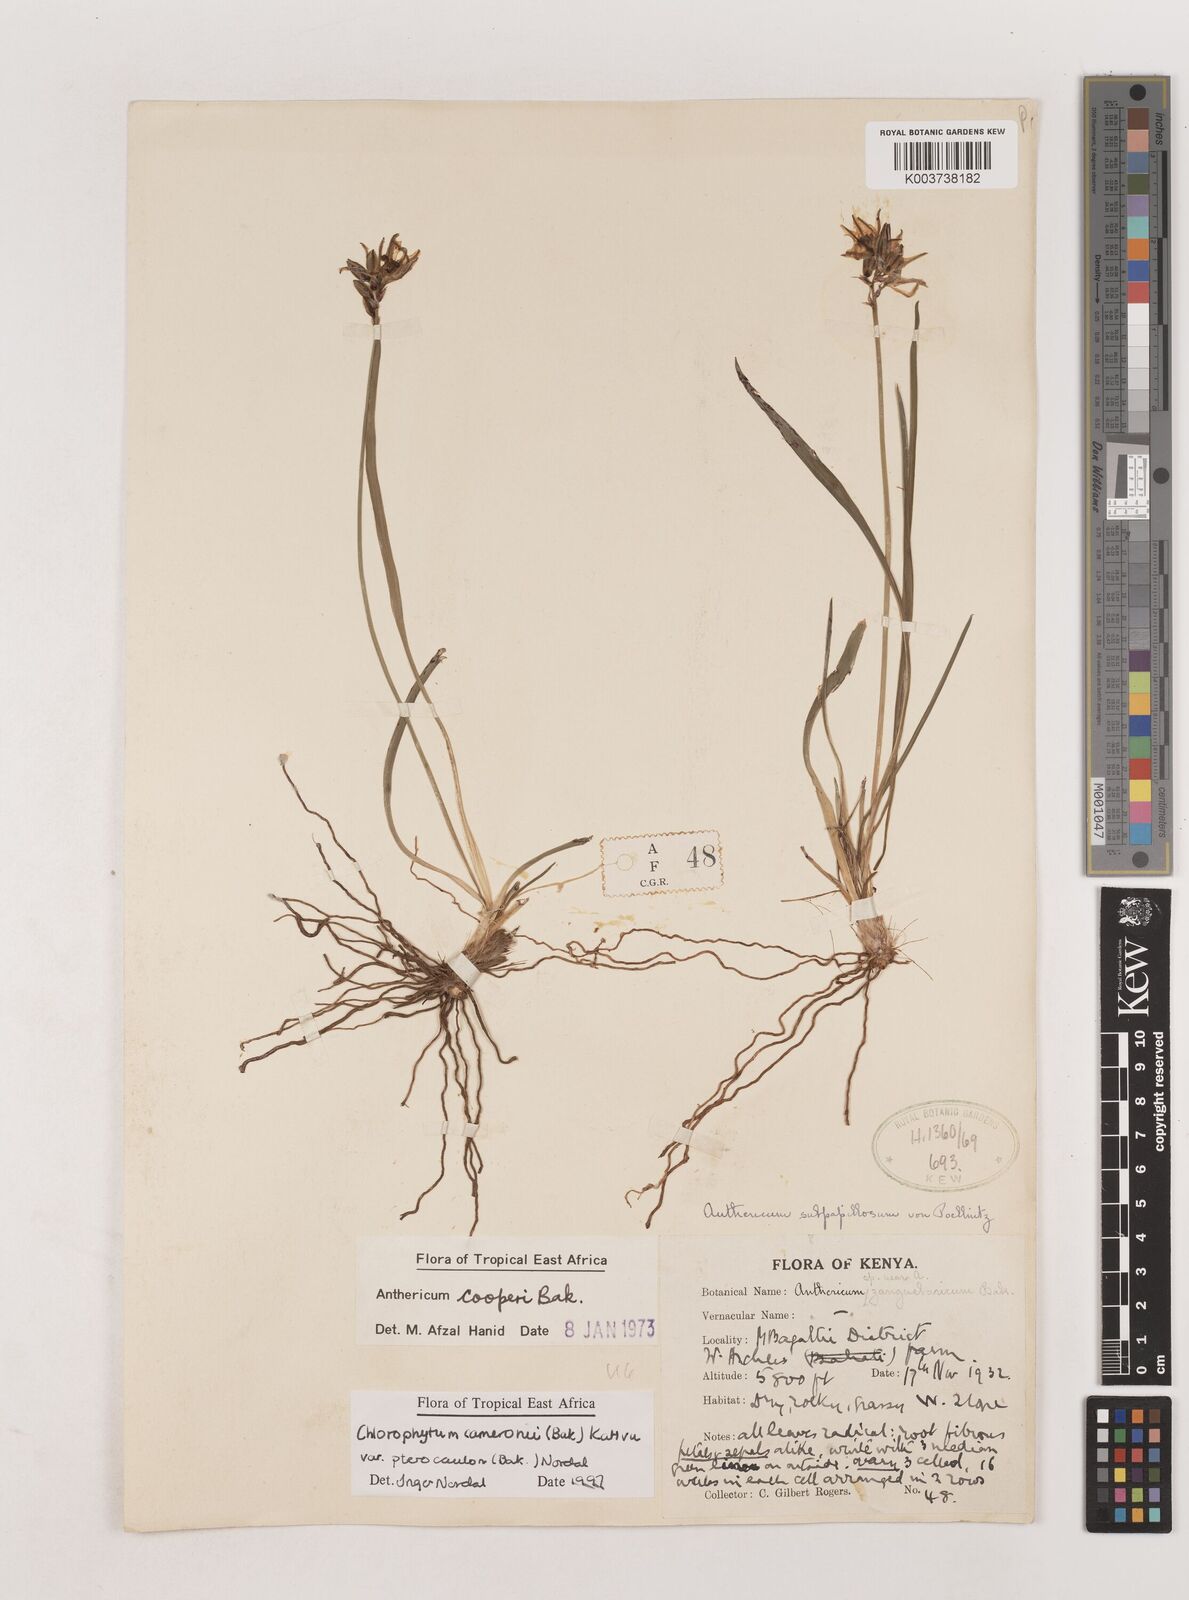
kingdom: Plantae
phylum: Tracheophyta
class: Liliopsida
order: Asparagales
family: Asparagaceae
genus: Chlorophytum
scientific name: Chlorophytum cameronii
